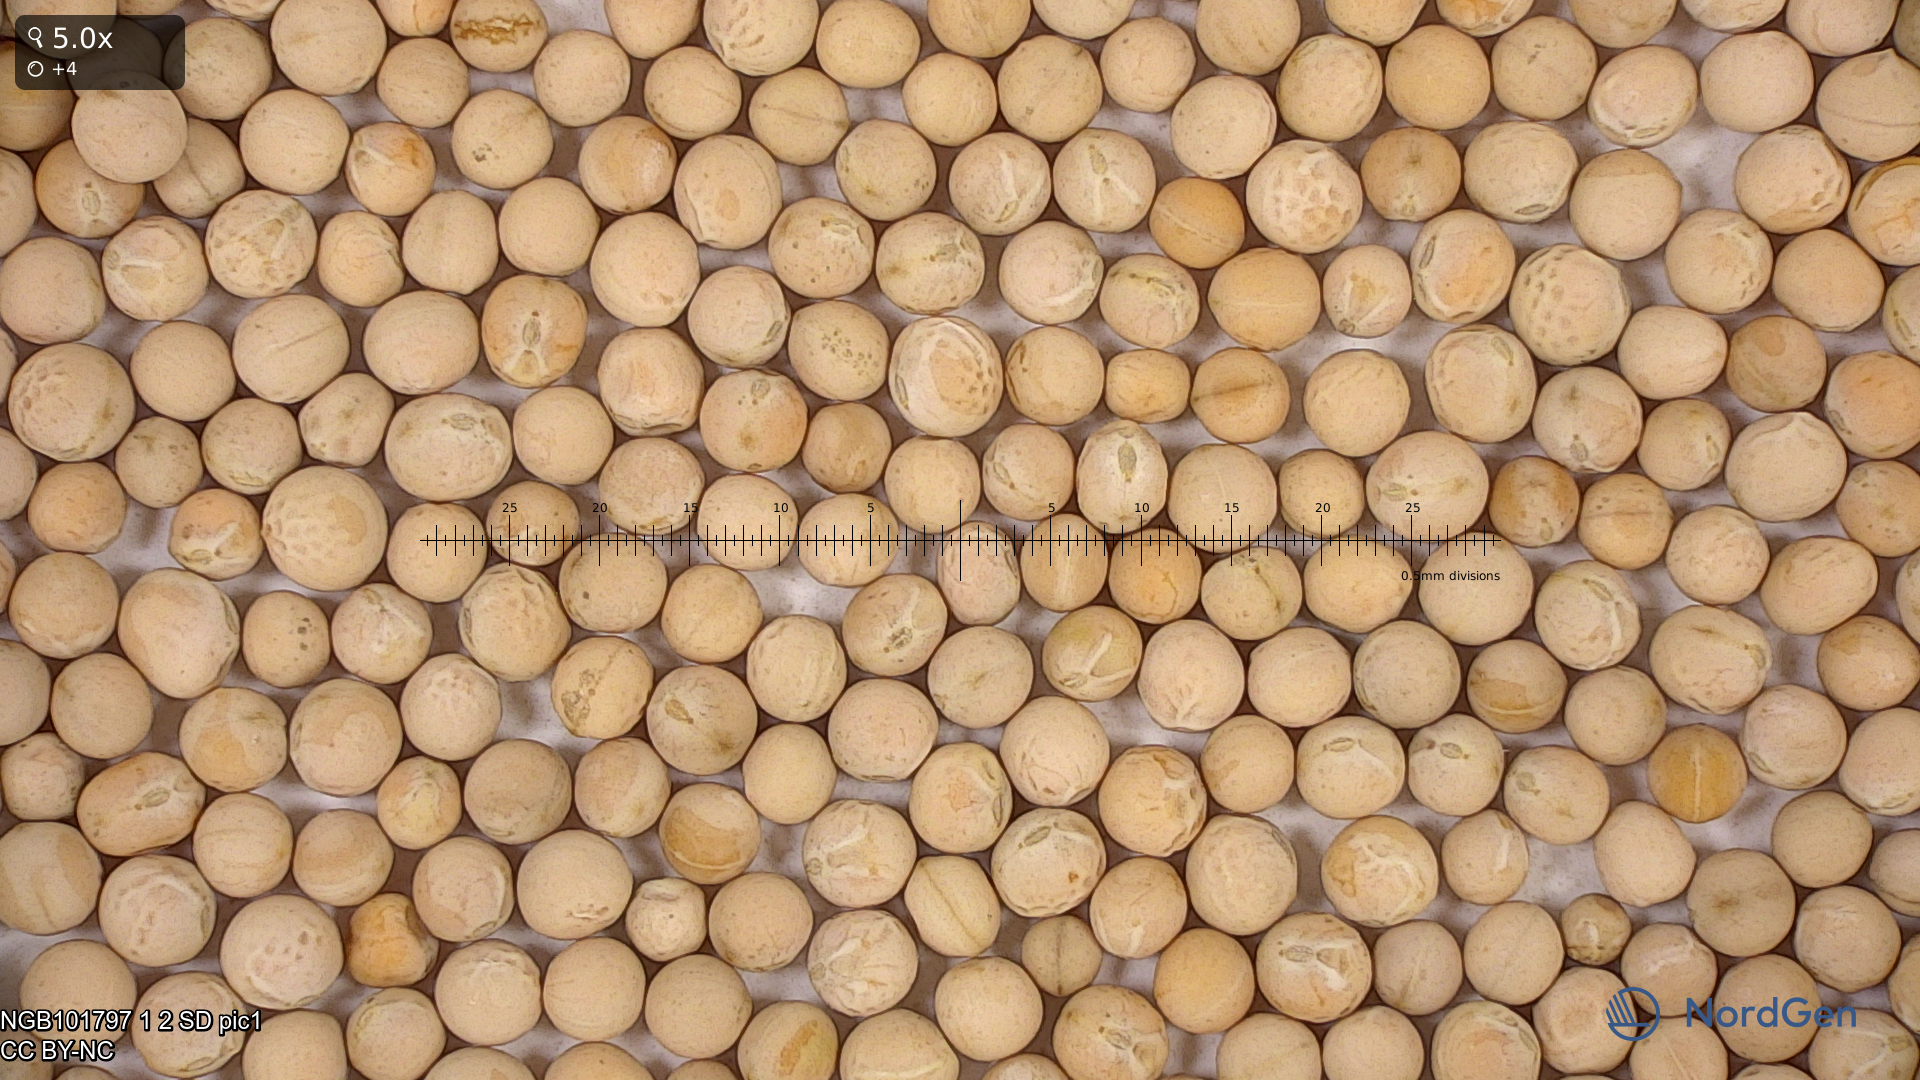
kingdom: Plantae
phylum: Tracheophyta
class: Magnoliopsida
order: Fabales
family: Fabaceae
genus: Lathyrus
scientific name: Lathyrus oleraceus
